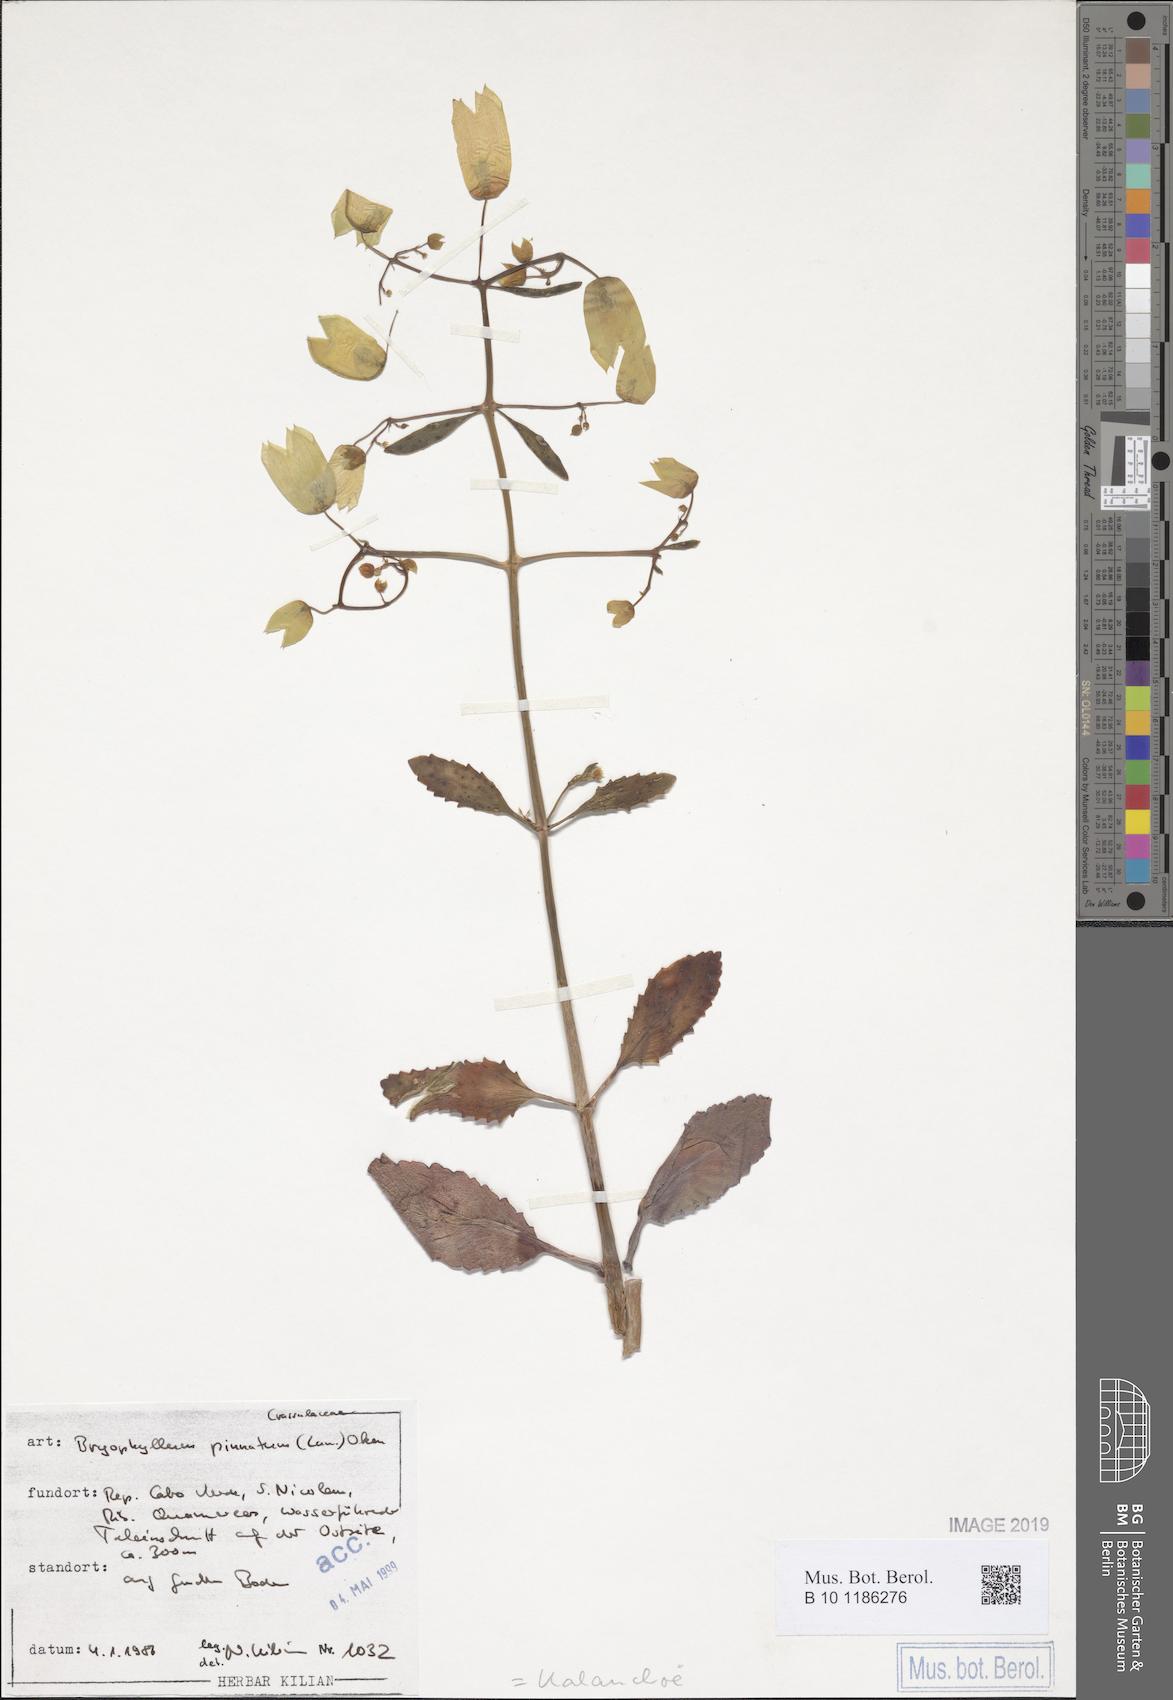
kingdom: Plantae
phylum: Tracheophyta
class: Magnoliopsida
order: Saxifragales
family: Crassulaceae
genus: Kalanchoe
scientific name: Kalanchoe pinnata
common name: Cathedral bells
